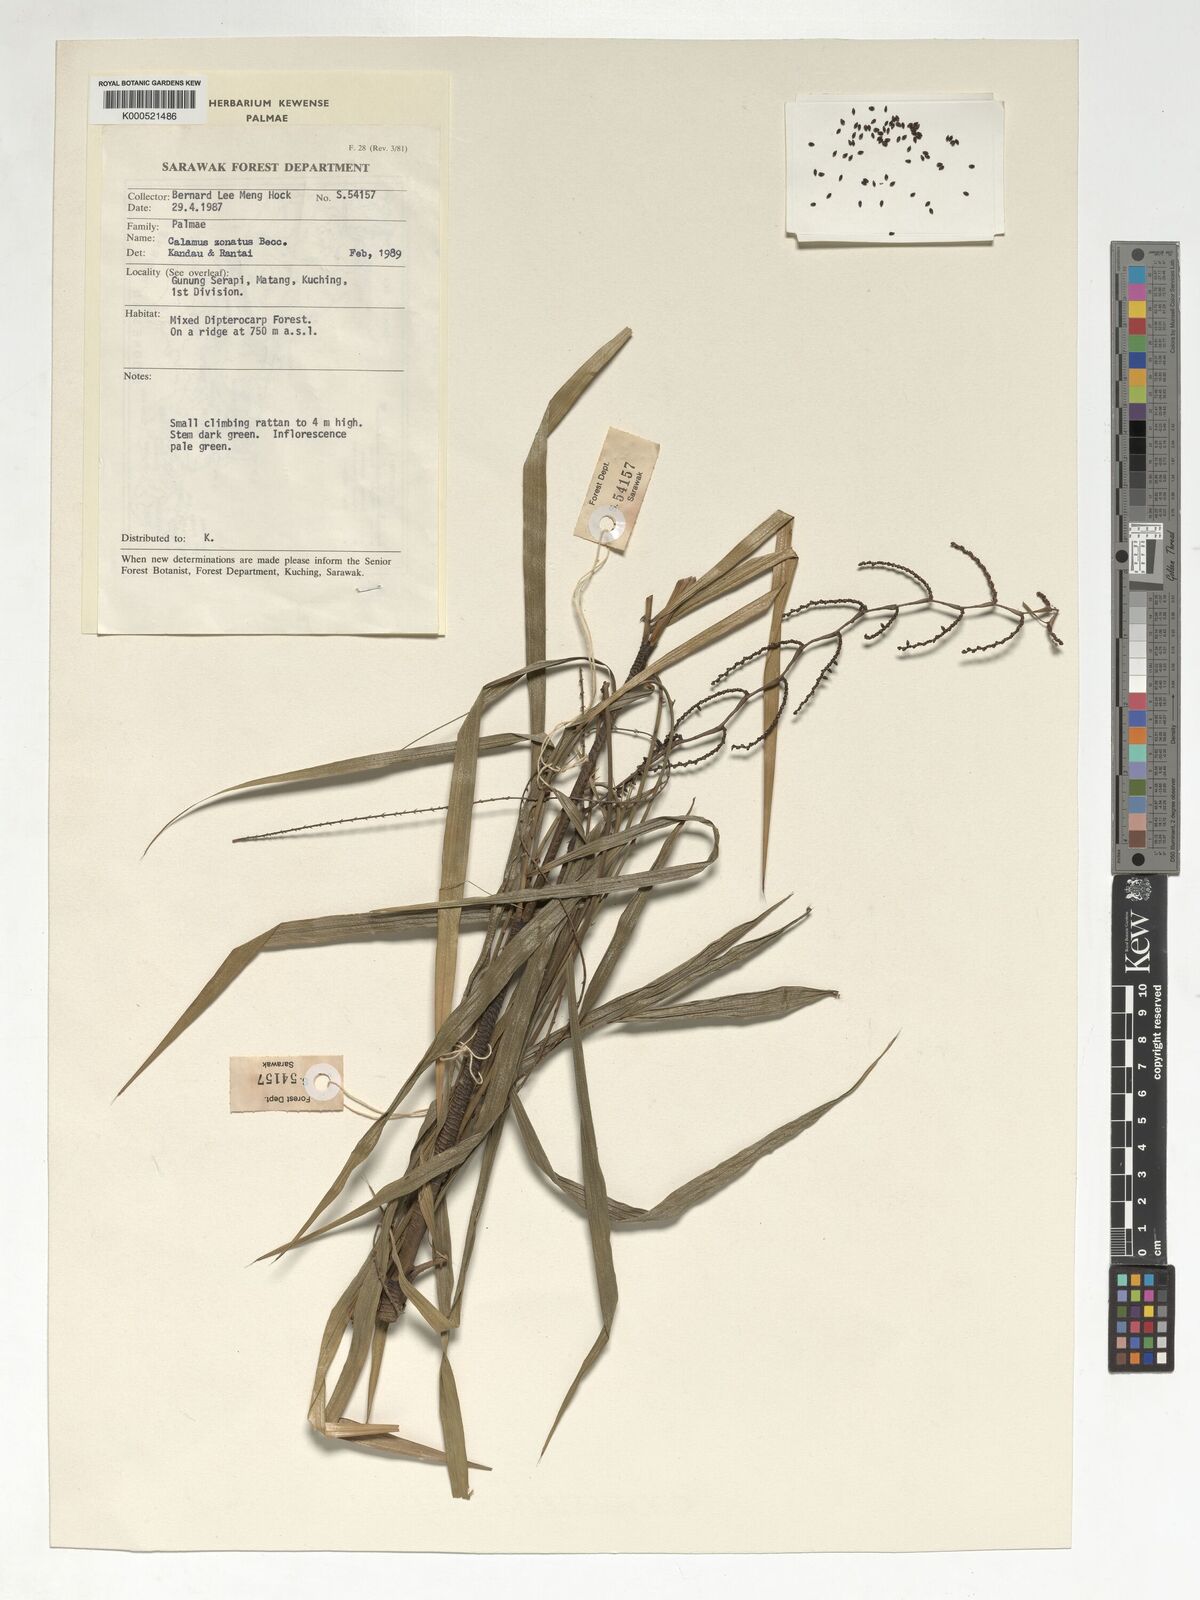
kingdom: Plantae
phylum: Tracheophyta
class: Liliopsida
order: Arecales
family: Arecaceae
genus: Calamus
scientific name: Calamus zonatus
